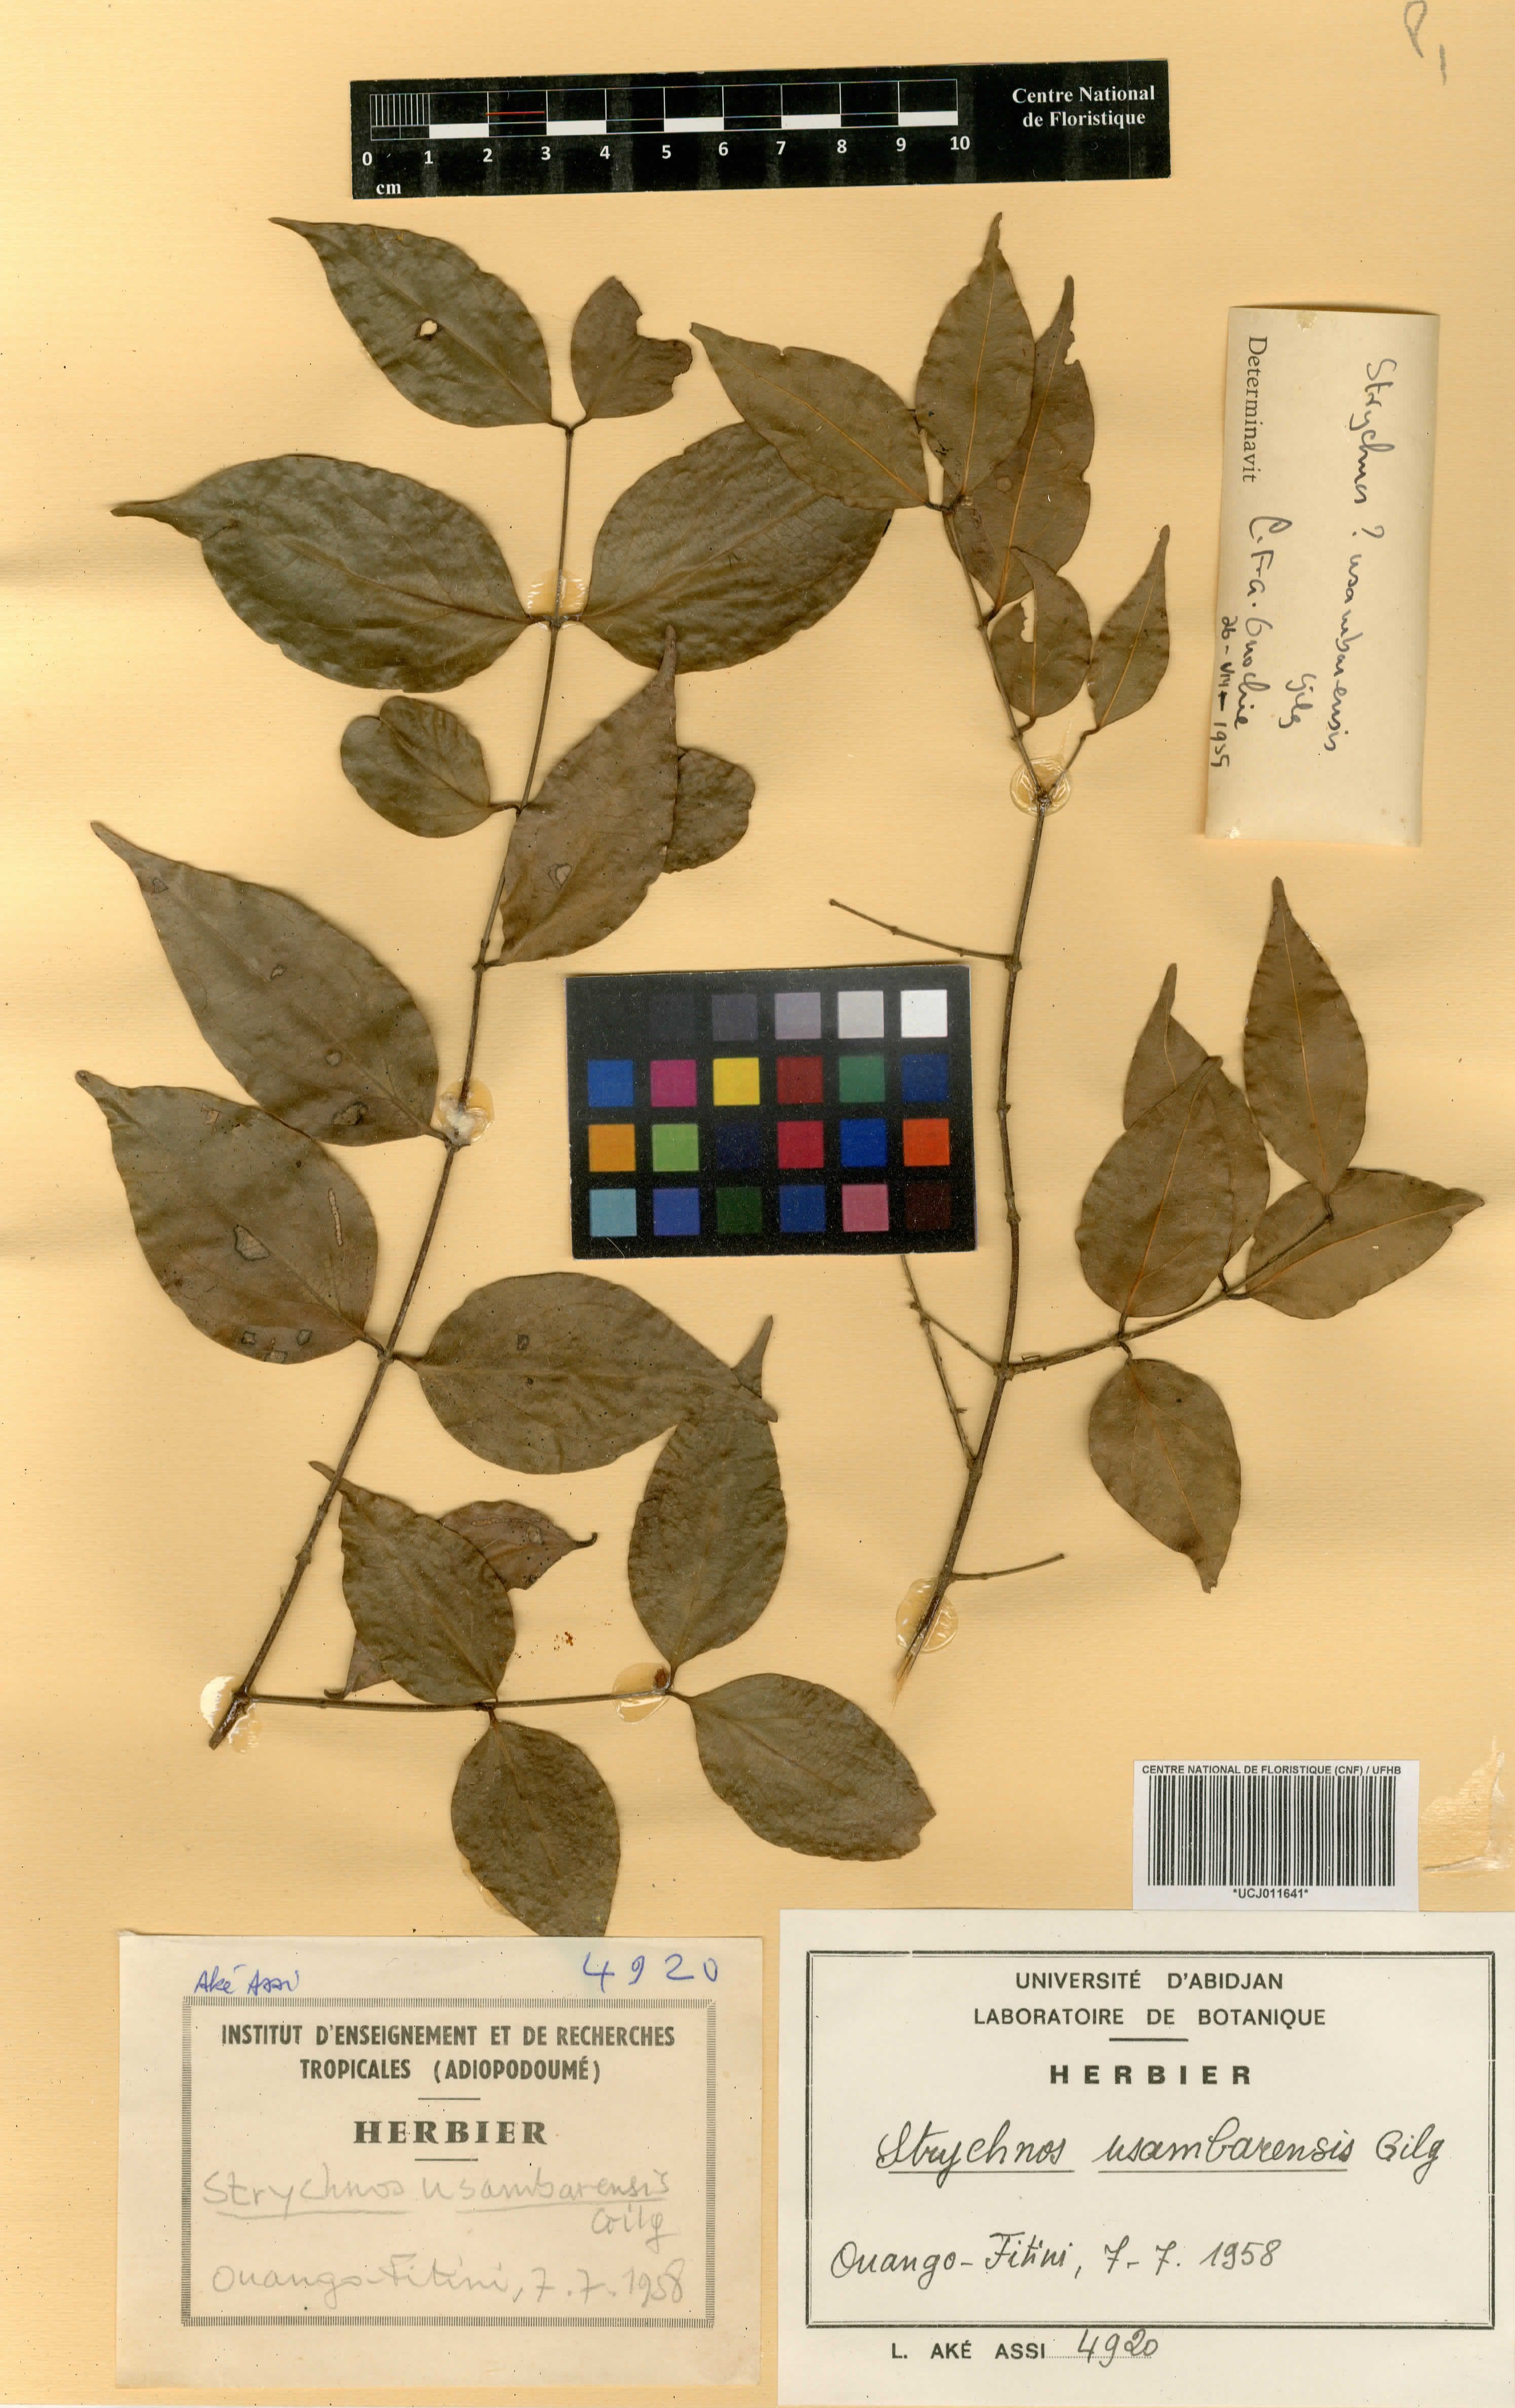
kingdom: Plantae
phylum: Tracheophyta
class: Magnoliopsida
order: Gentianales
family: Loganiaceae
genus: Strychnos
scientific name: Strychnos usambarensis
